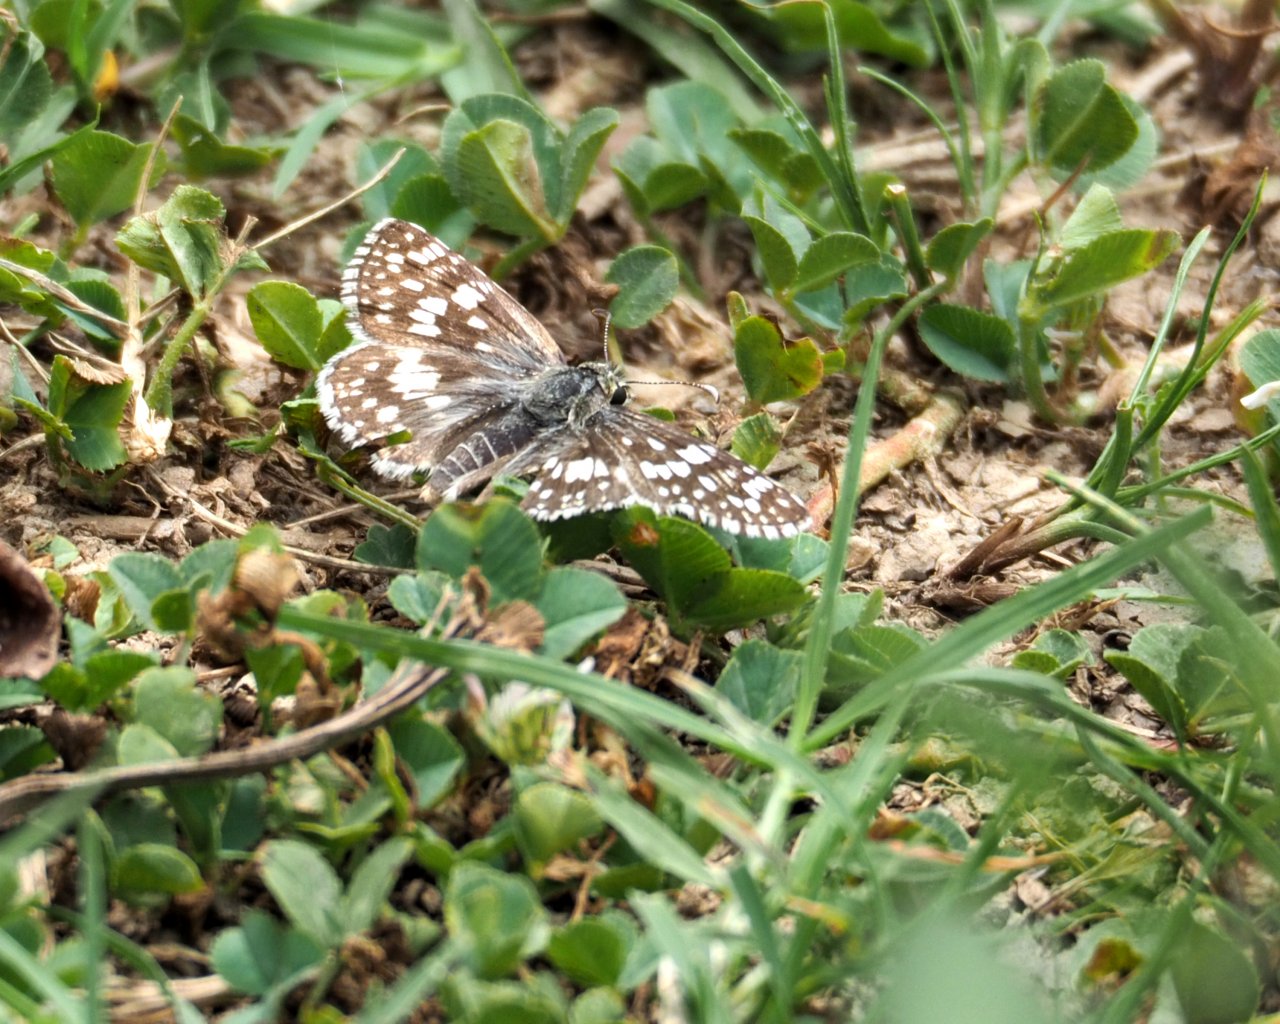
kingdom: Animalia
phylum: Arthropoda
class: Insecta
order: Lepidoptera
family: Hesperiidae
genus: Pyrgus
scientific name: Pyrgus communis
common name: Common Checkered-Skipper
